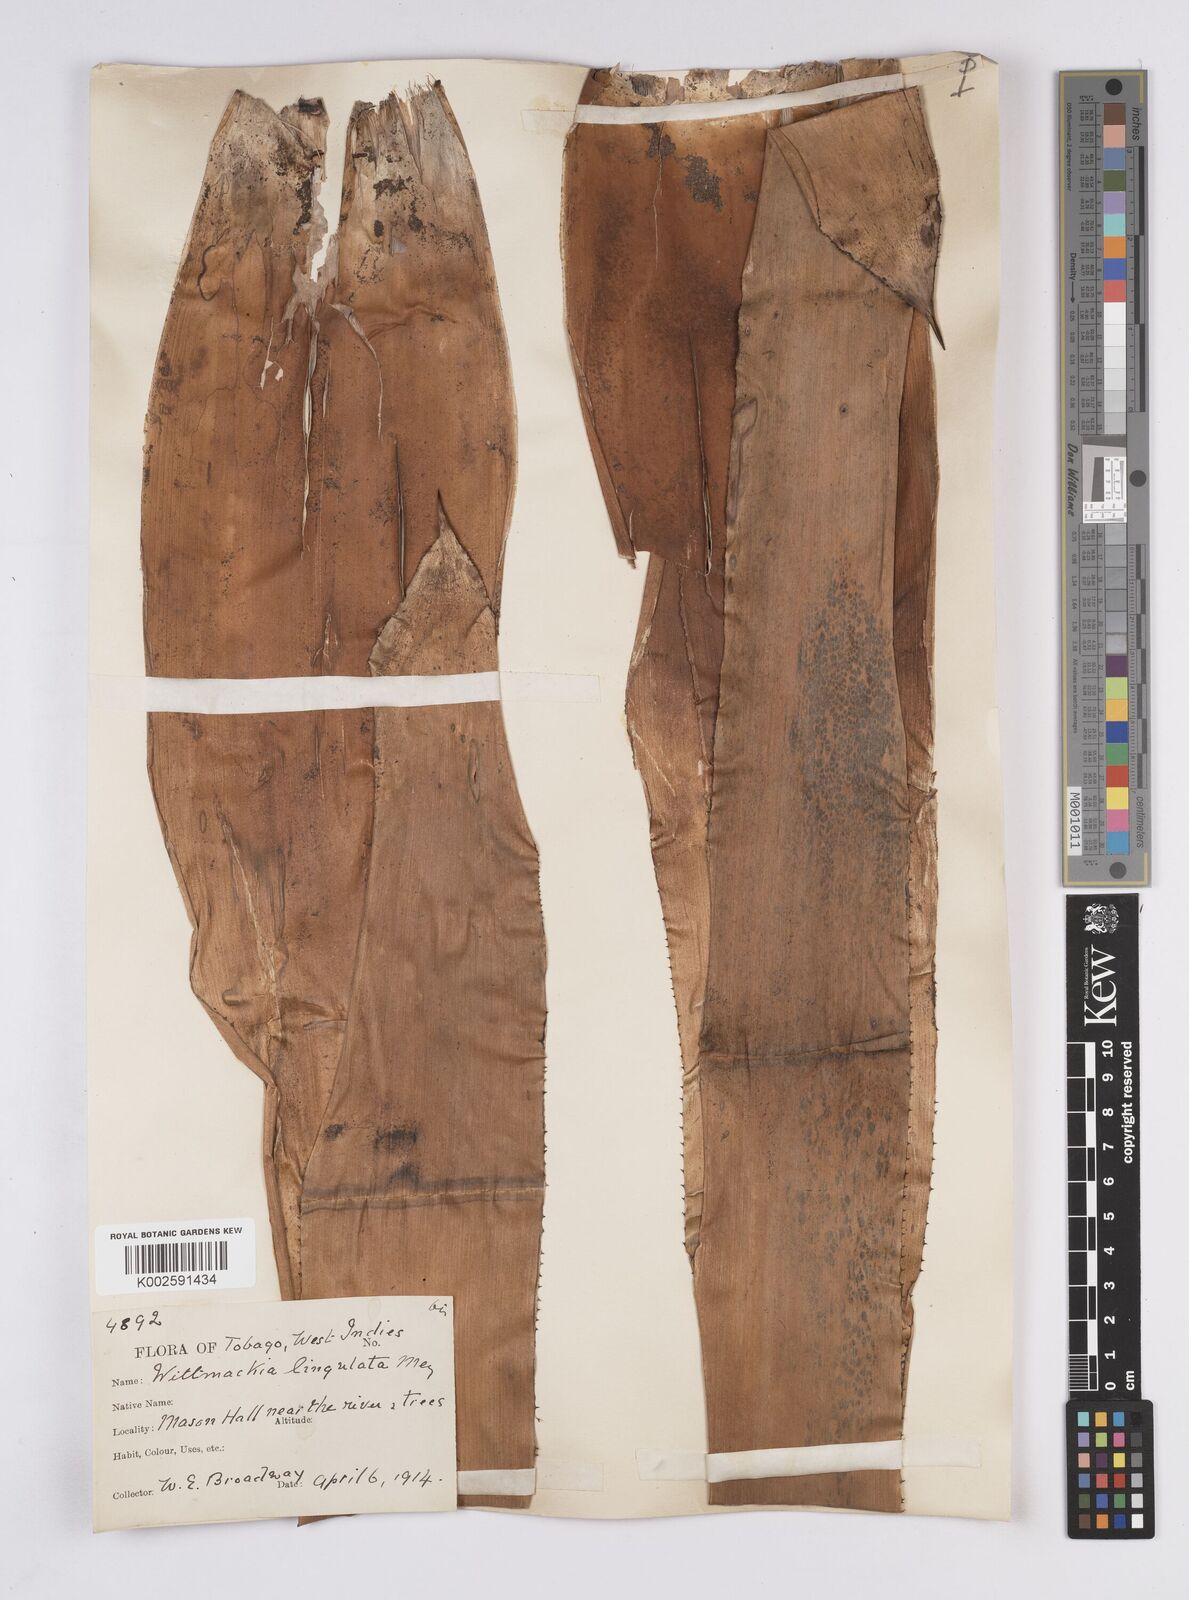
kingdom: Plantae
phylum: Tracheophyta
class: Liliopsida
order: Poales
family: Bromeliaceae
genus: Wittmackia
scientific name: Wittmackia lingulata
